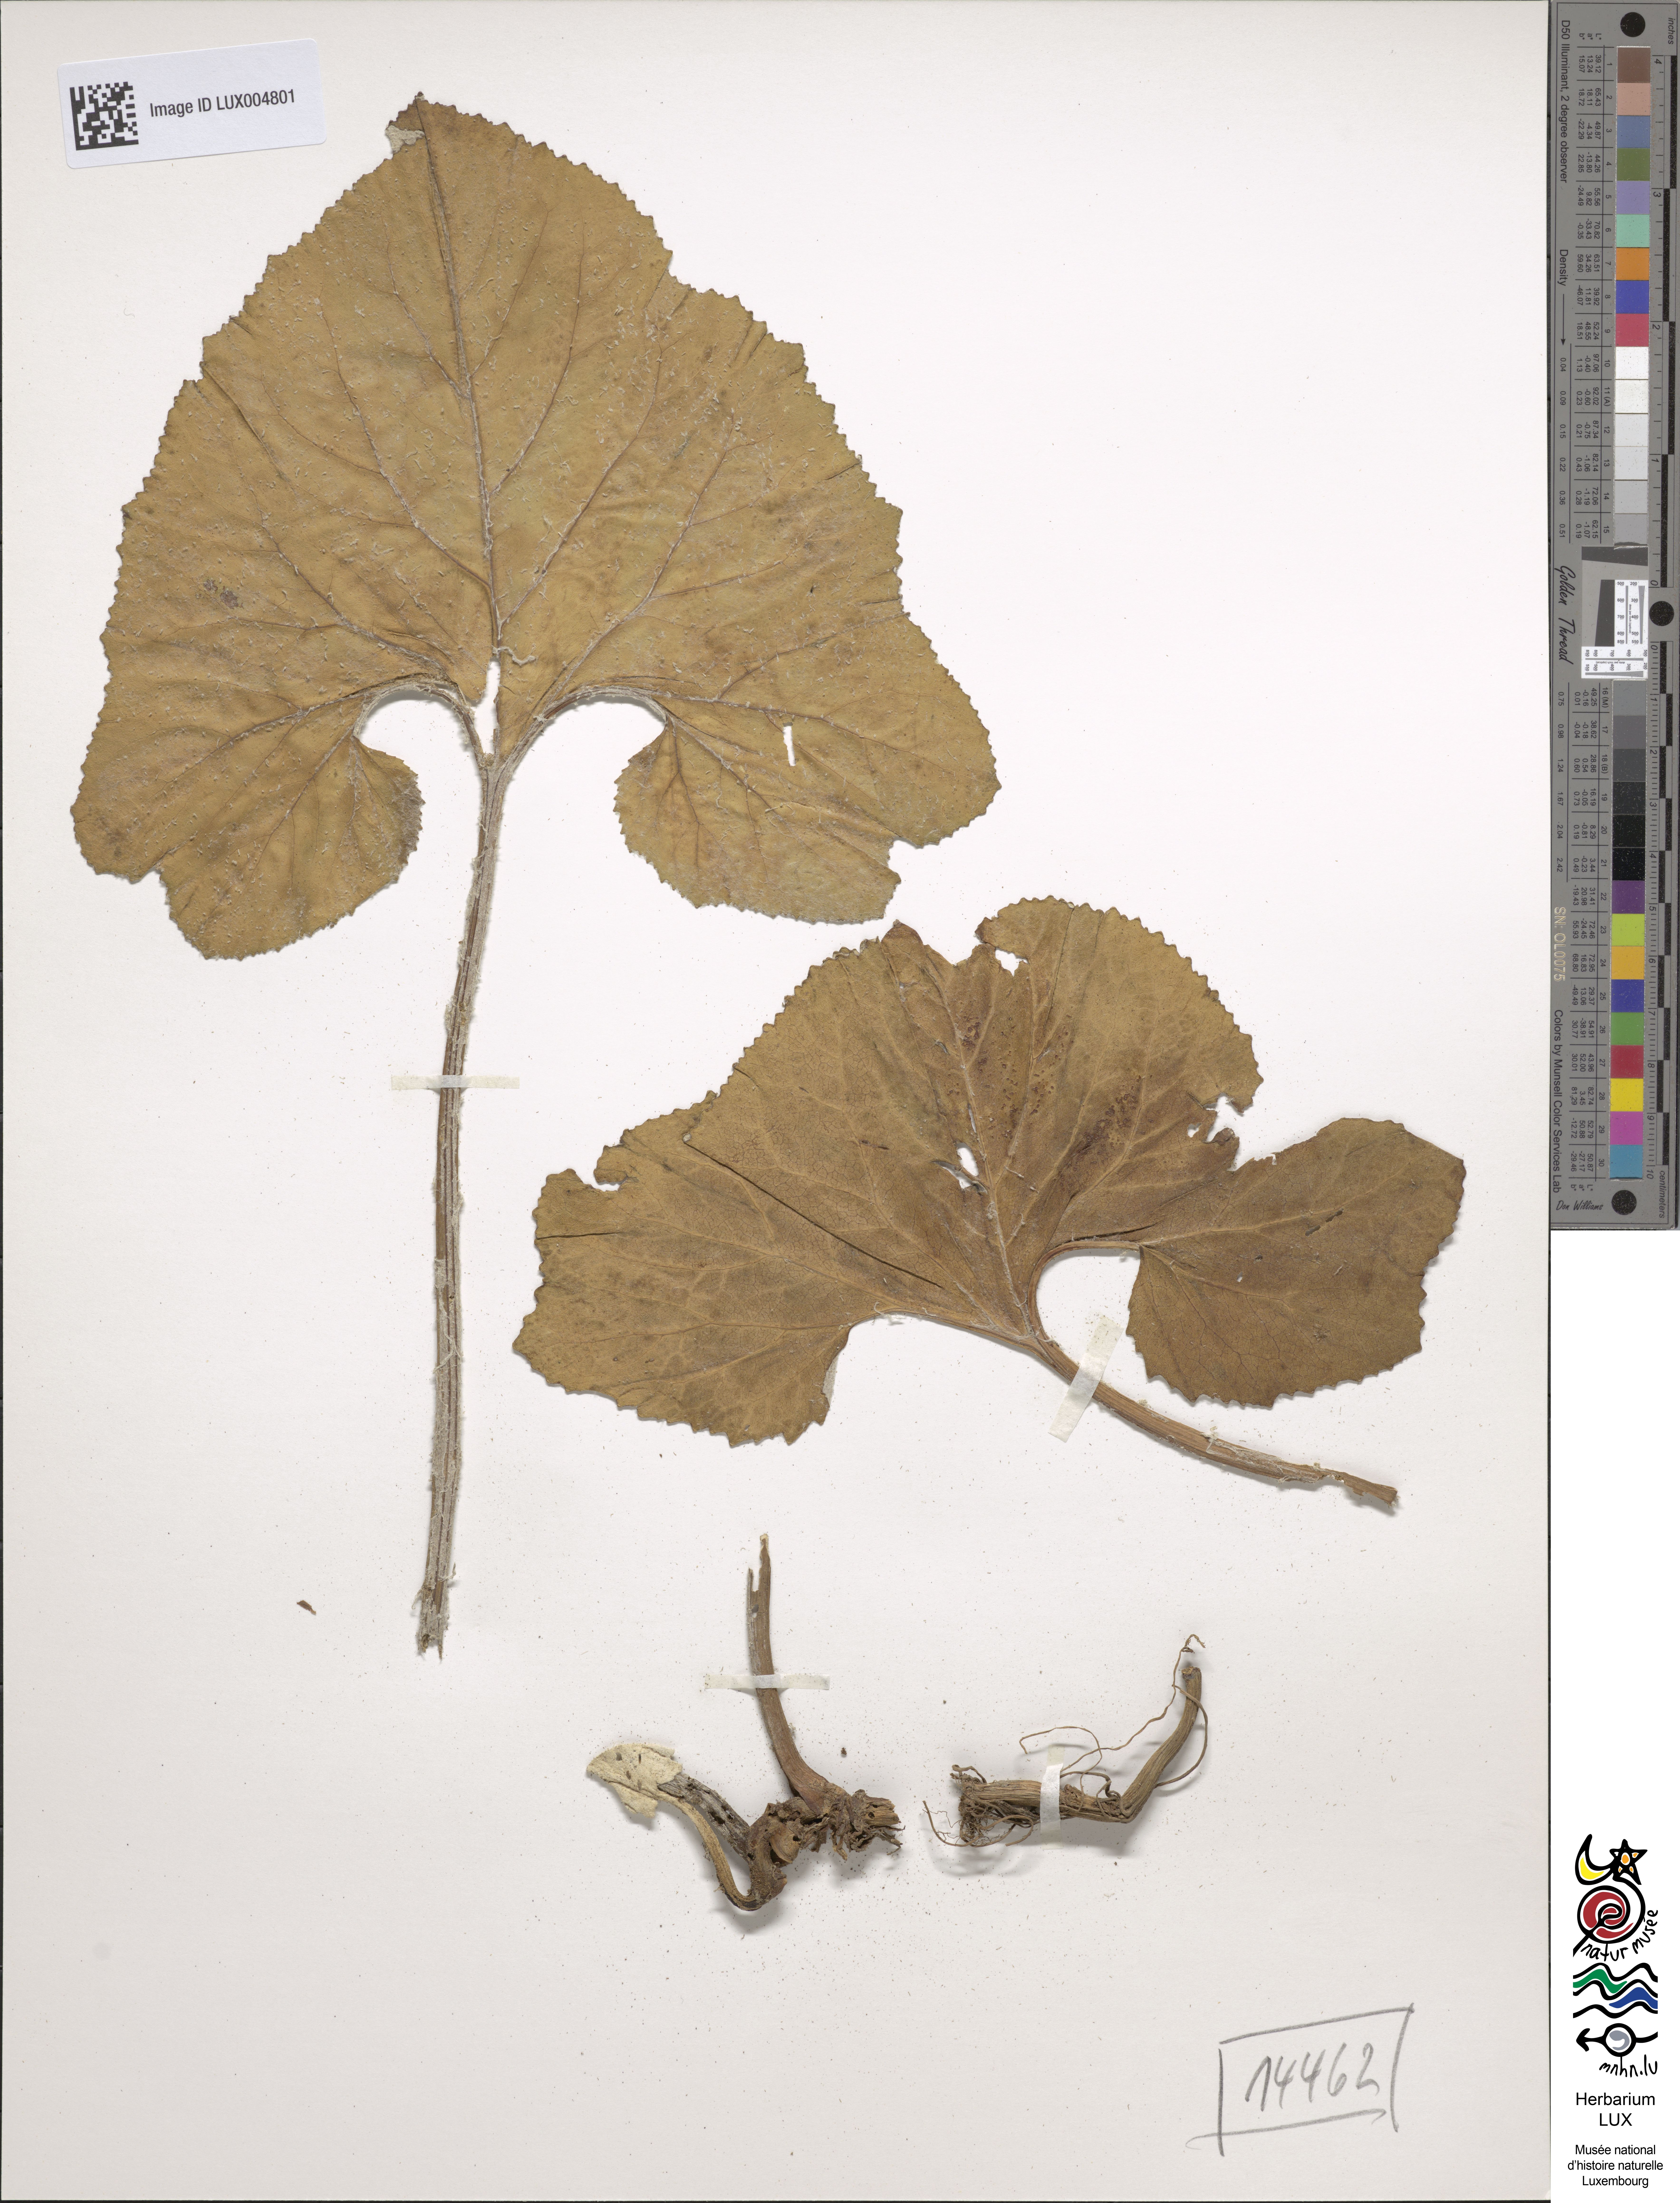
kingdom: Plantae
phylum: Tracheophyta
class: Magnoliopsida
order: Asterales
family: Asteraceae
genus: Petasites
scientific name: Petasites spurius
